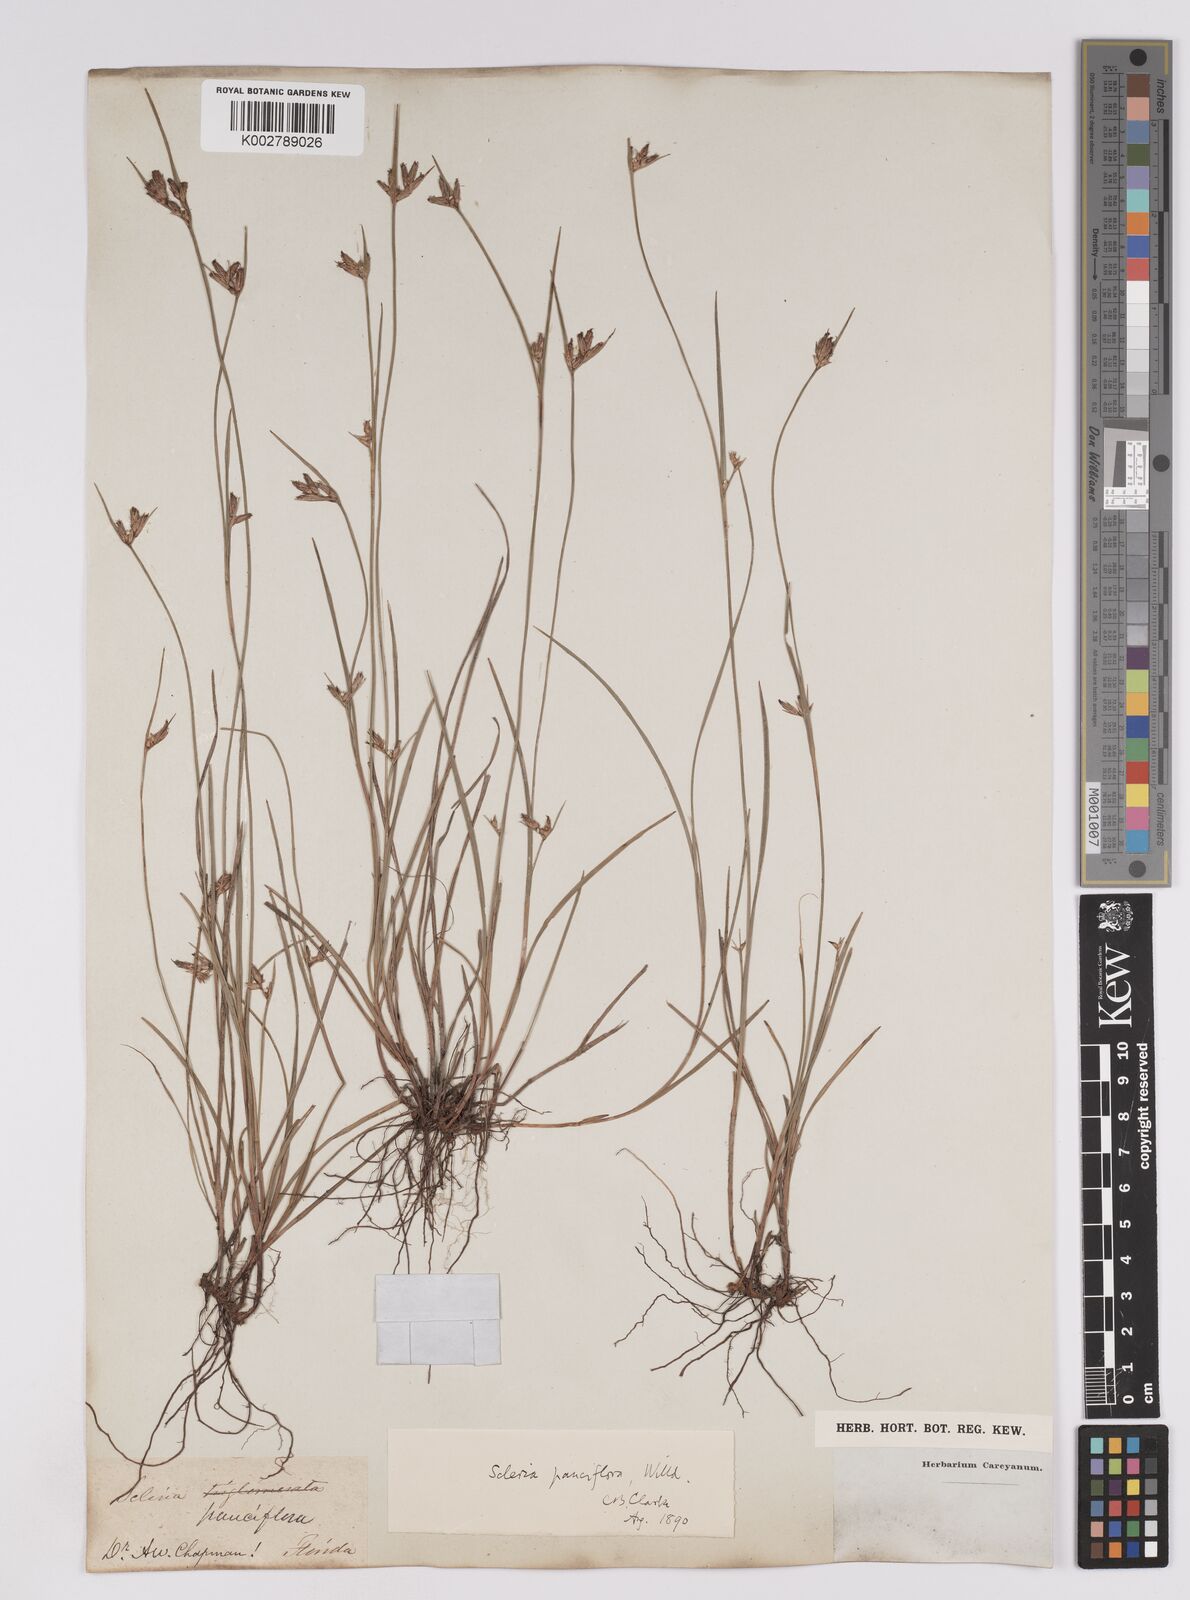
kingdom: Plantae
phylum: Tracheophyta
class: Liliopsida
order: Poales
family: Cyperaceae
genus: Scleria
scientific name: Scleria pauciflora
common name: Few-flowered nutrush
